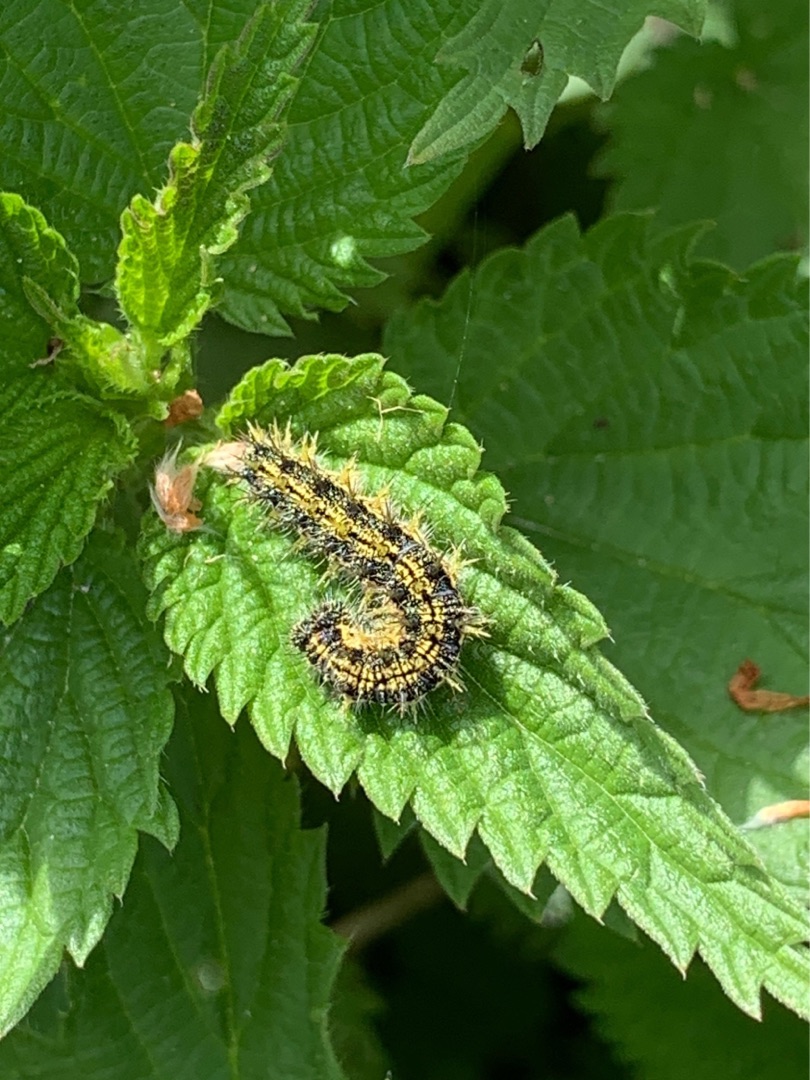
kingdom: Animalia
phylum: Arthropoda
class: Insecta
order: Lepidoptera
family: Nymphalidae
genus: Aglais
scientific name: Aglais urticae
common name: Nældens takvinge
